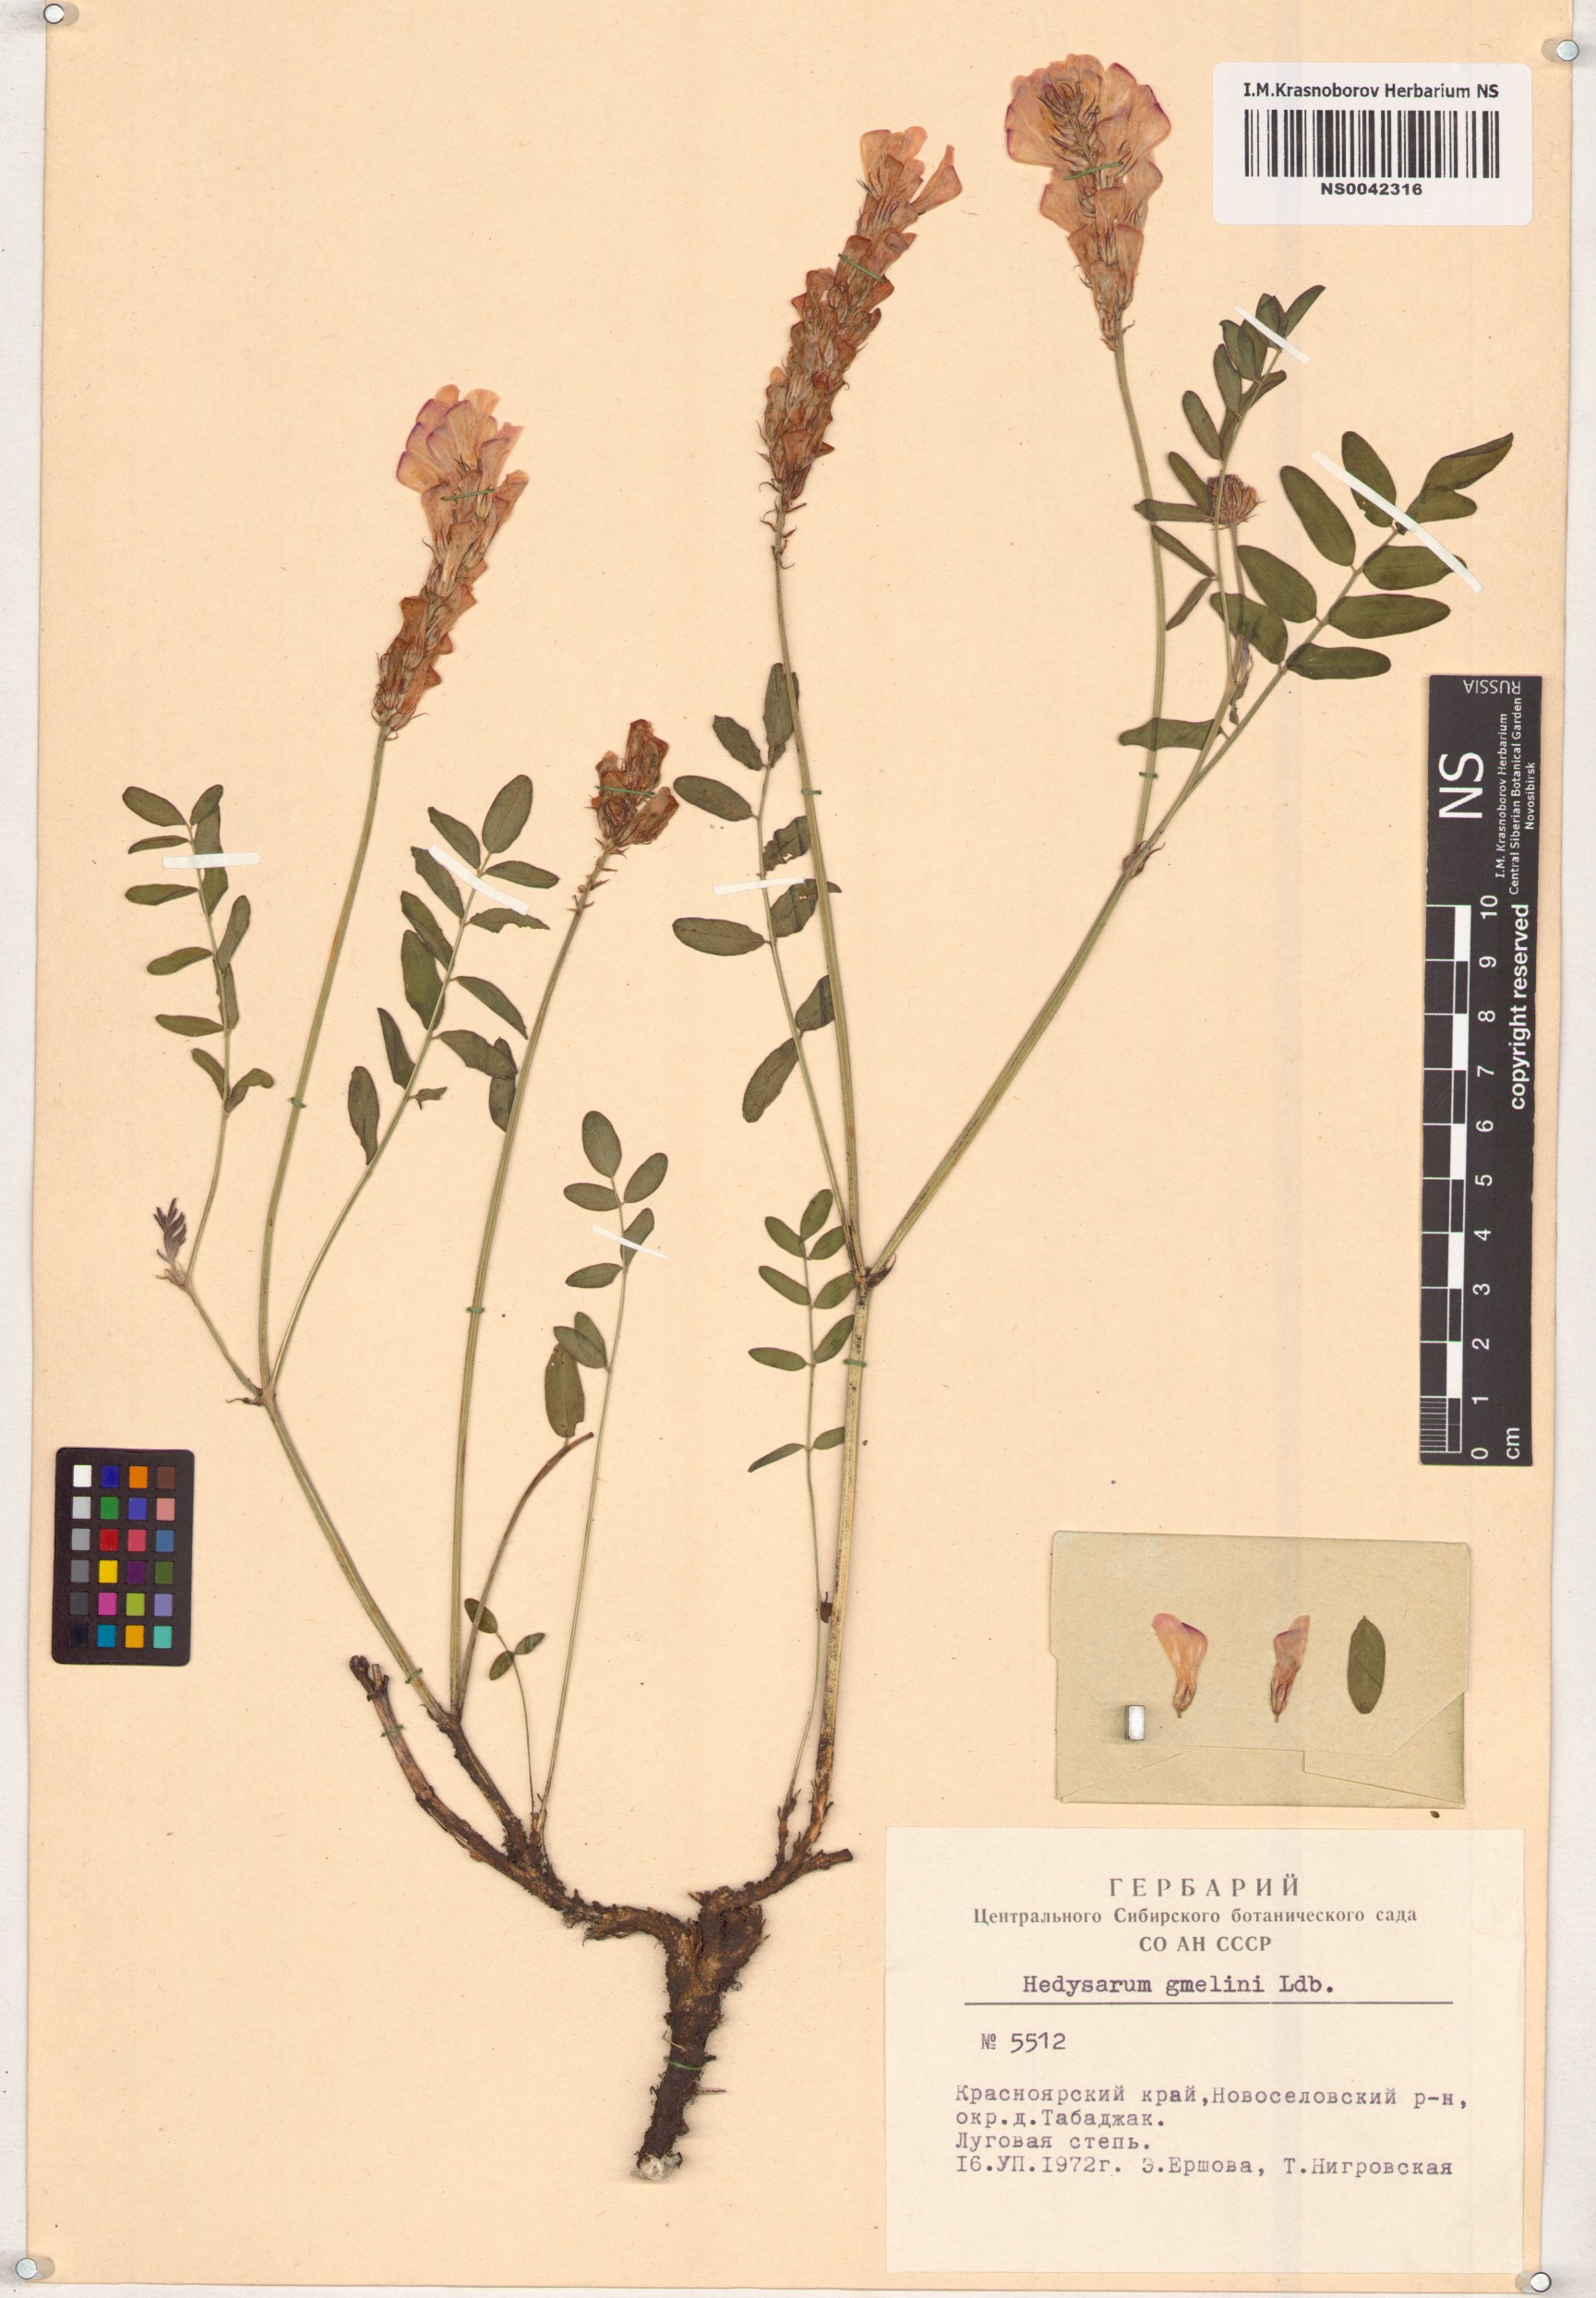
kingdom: Plantae
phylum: Tracheophyta
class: Magnoliopsida
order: Fabales
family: Fabaceae
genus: Hedysarum
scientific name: Hedysarum gmelinii
